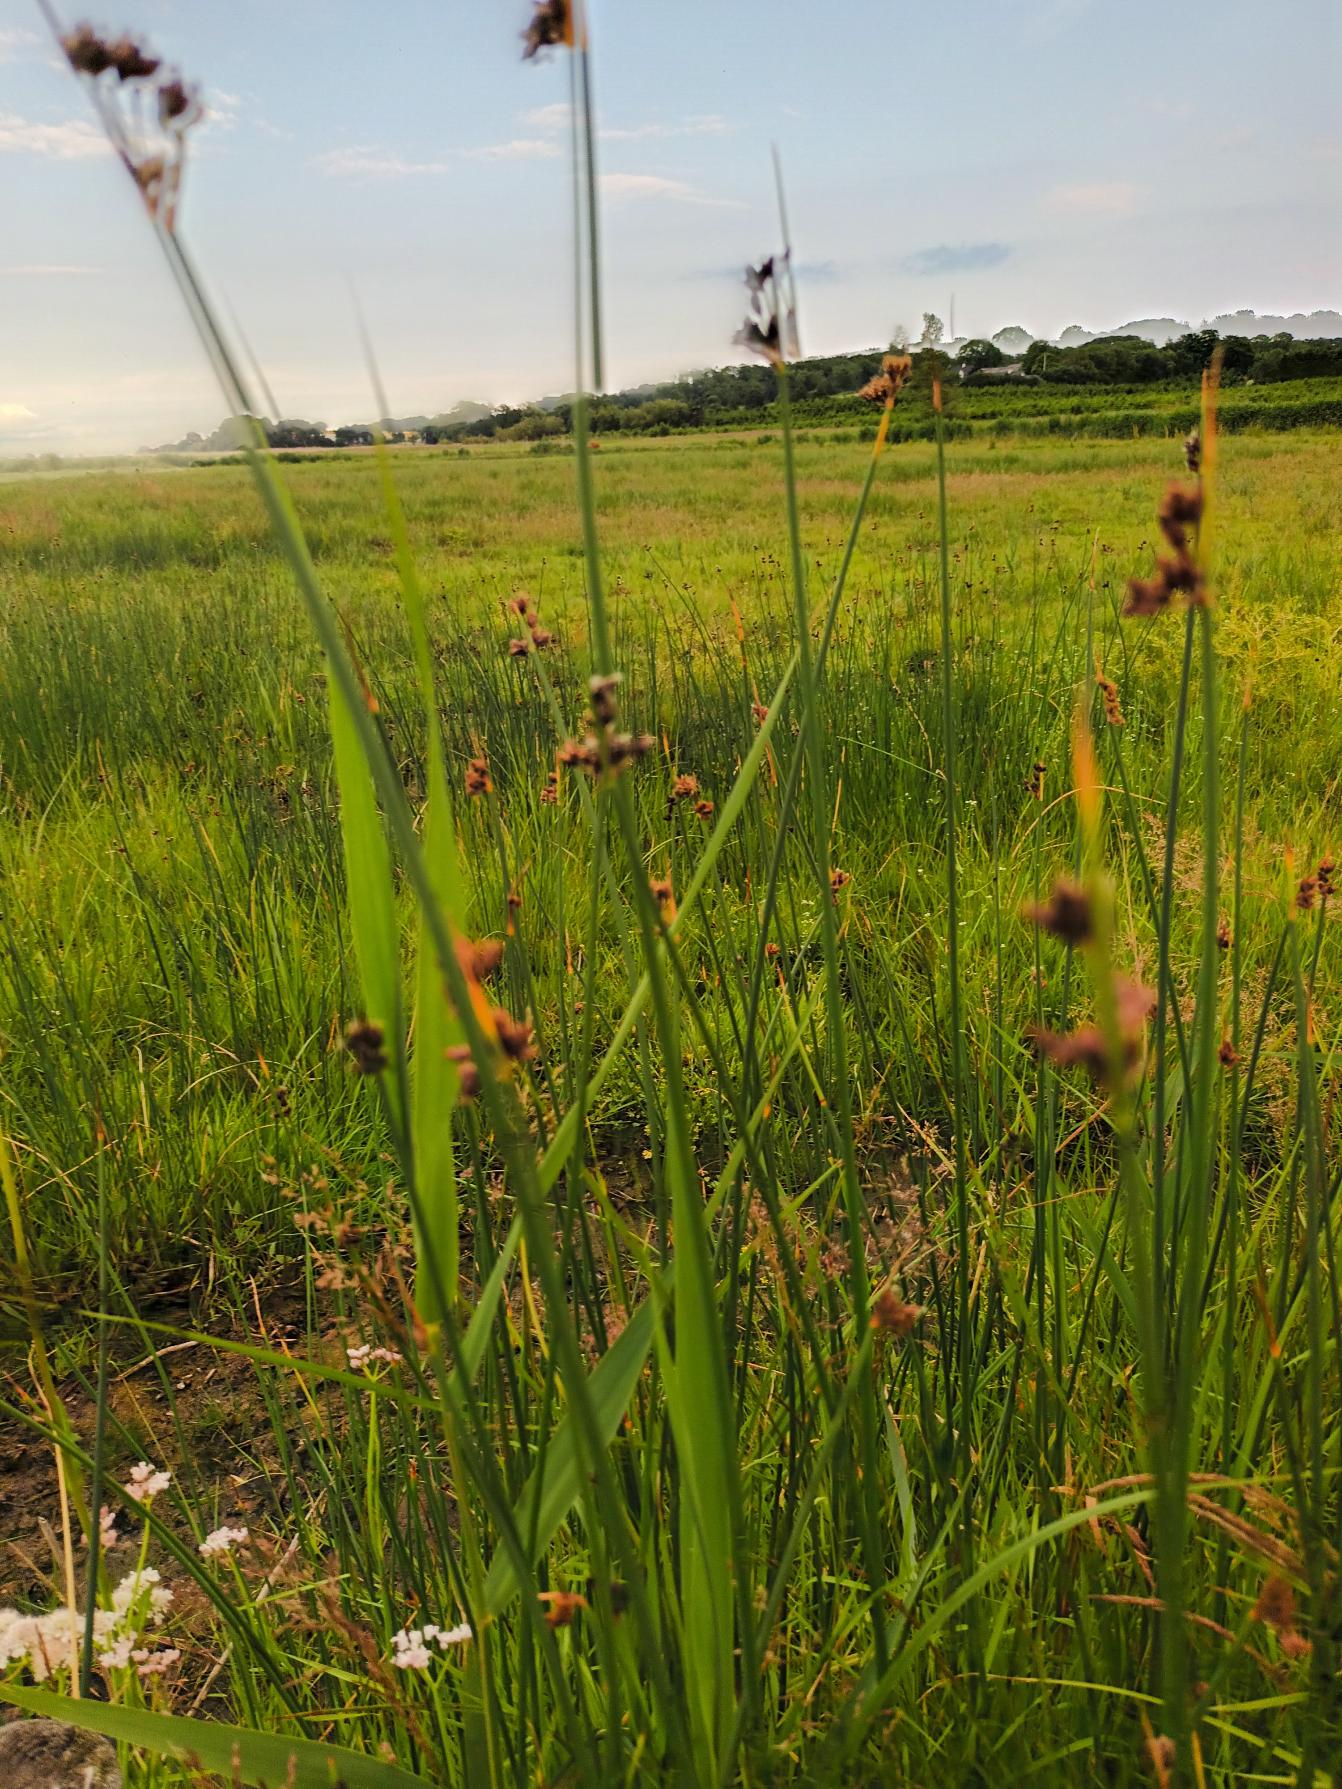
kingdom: Plantae
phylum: Tracheophyta
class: Liliopsida
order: Poales
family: Cyperaceae
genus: Schoenoplectus
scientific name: Schoenoplectus tabernaemontani
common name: Blågrøn kogleaks
